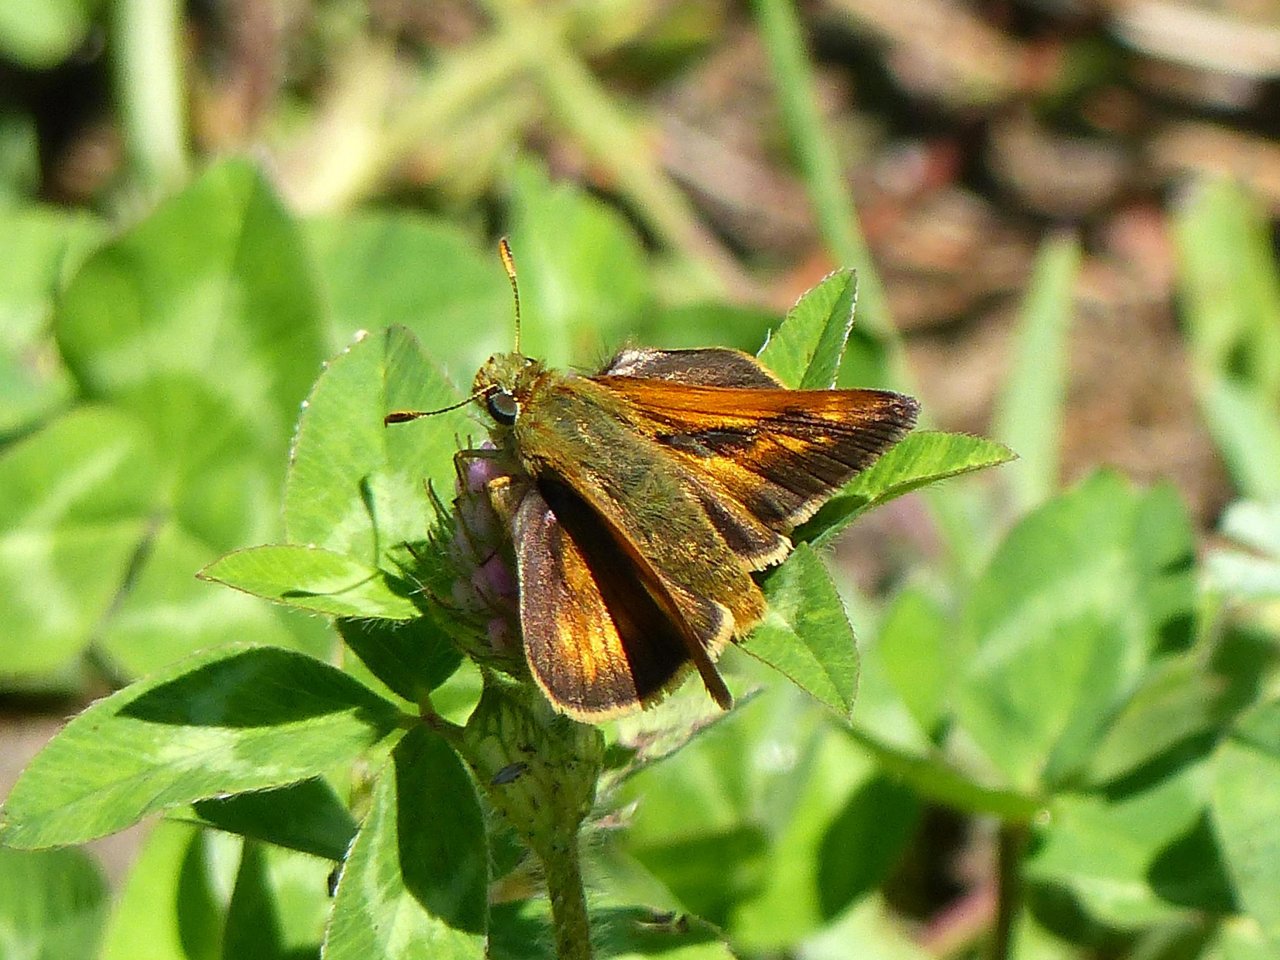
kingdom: Animalia
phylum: Arthropoda
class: Insecta
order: Lepidoptera
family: Hesperiidae
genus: Polites
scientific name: Polites
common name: Long Dash Skipper
